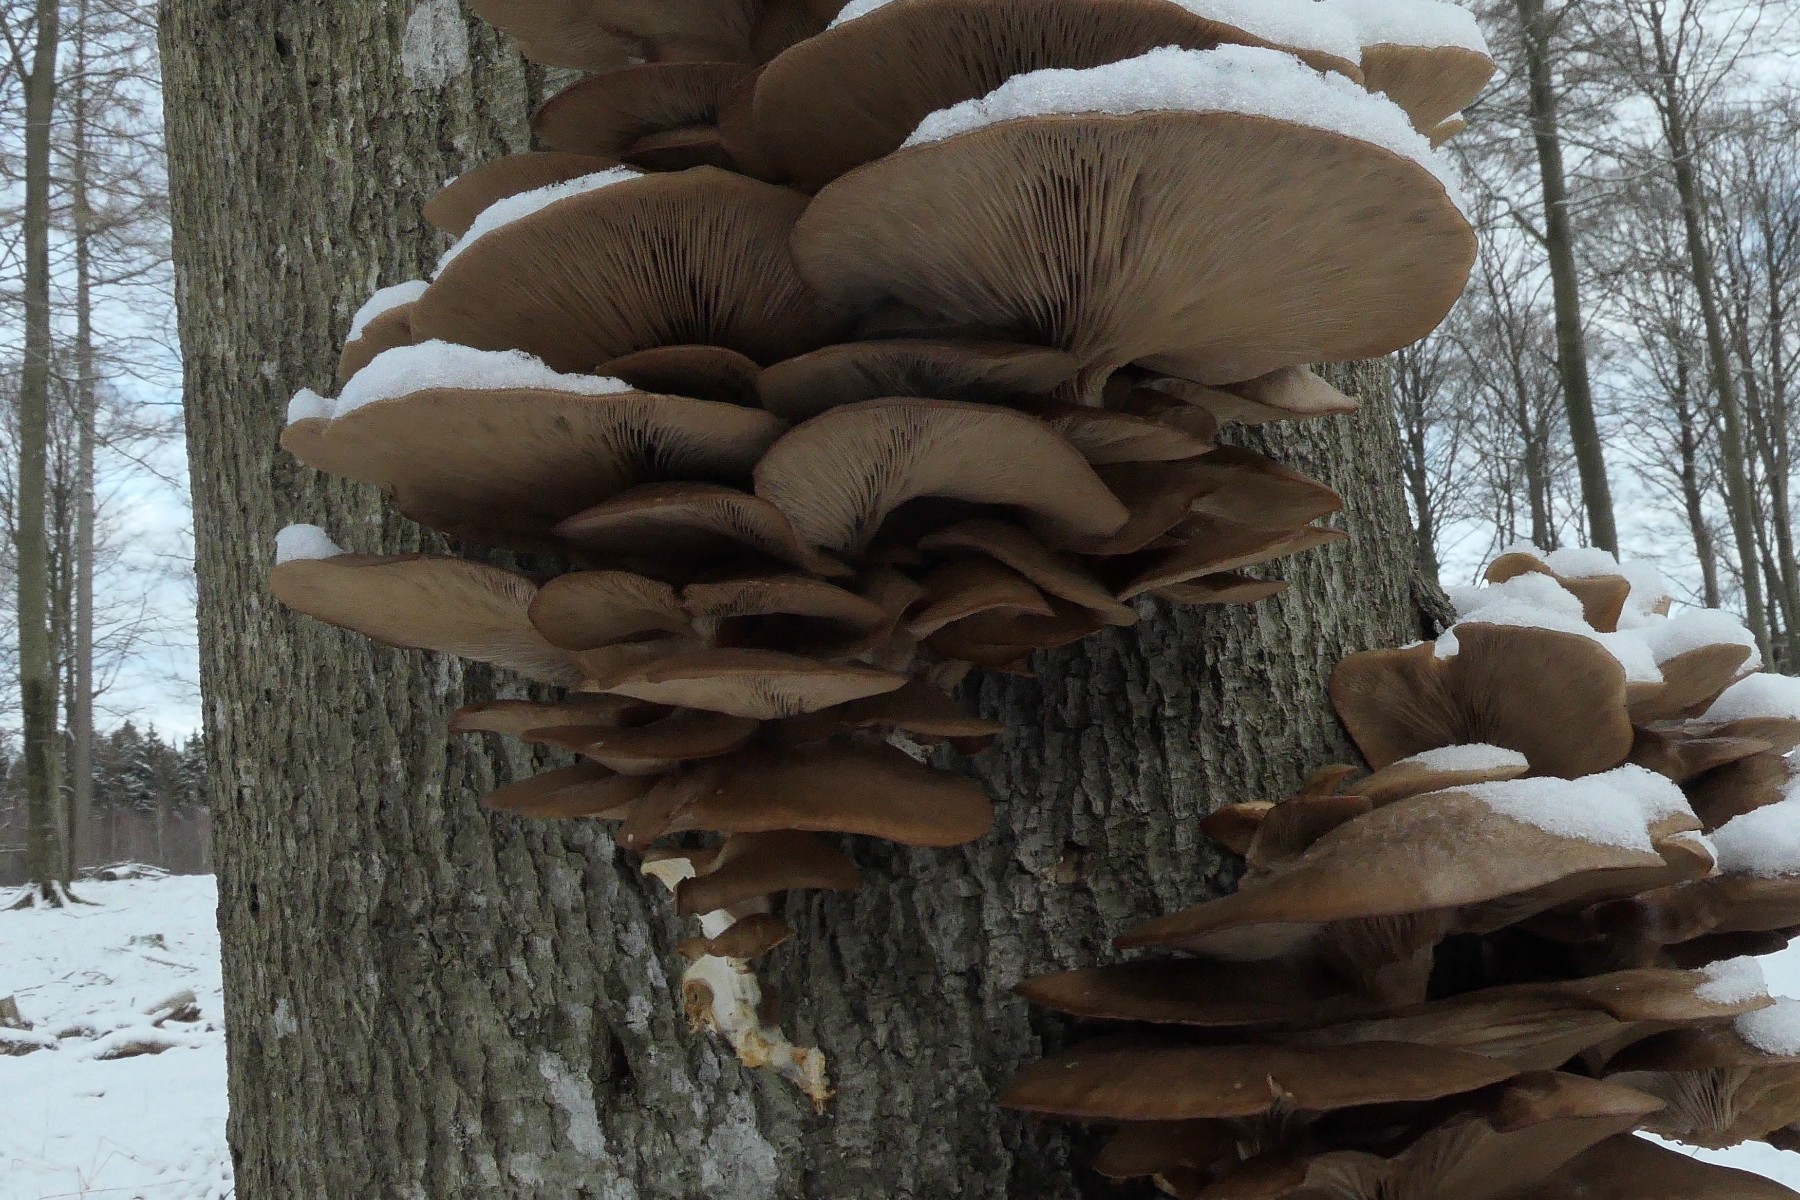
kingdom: Fungi
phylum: Basidiomycota
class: Agaricomycetes
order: Agaricales
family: Pleurotaceae
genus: Pleurotus
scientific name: Pleurotus ostreatus
